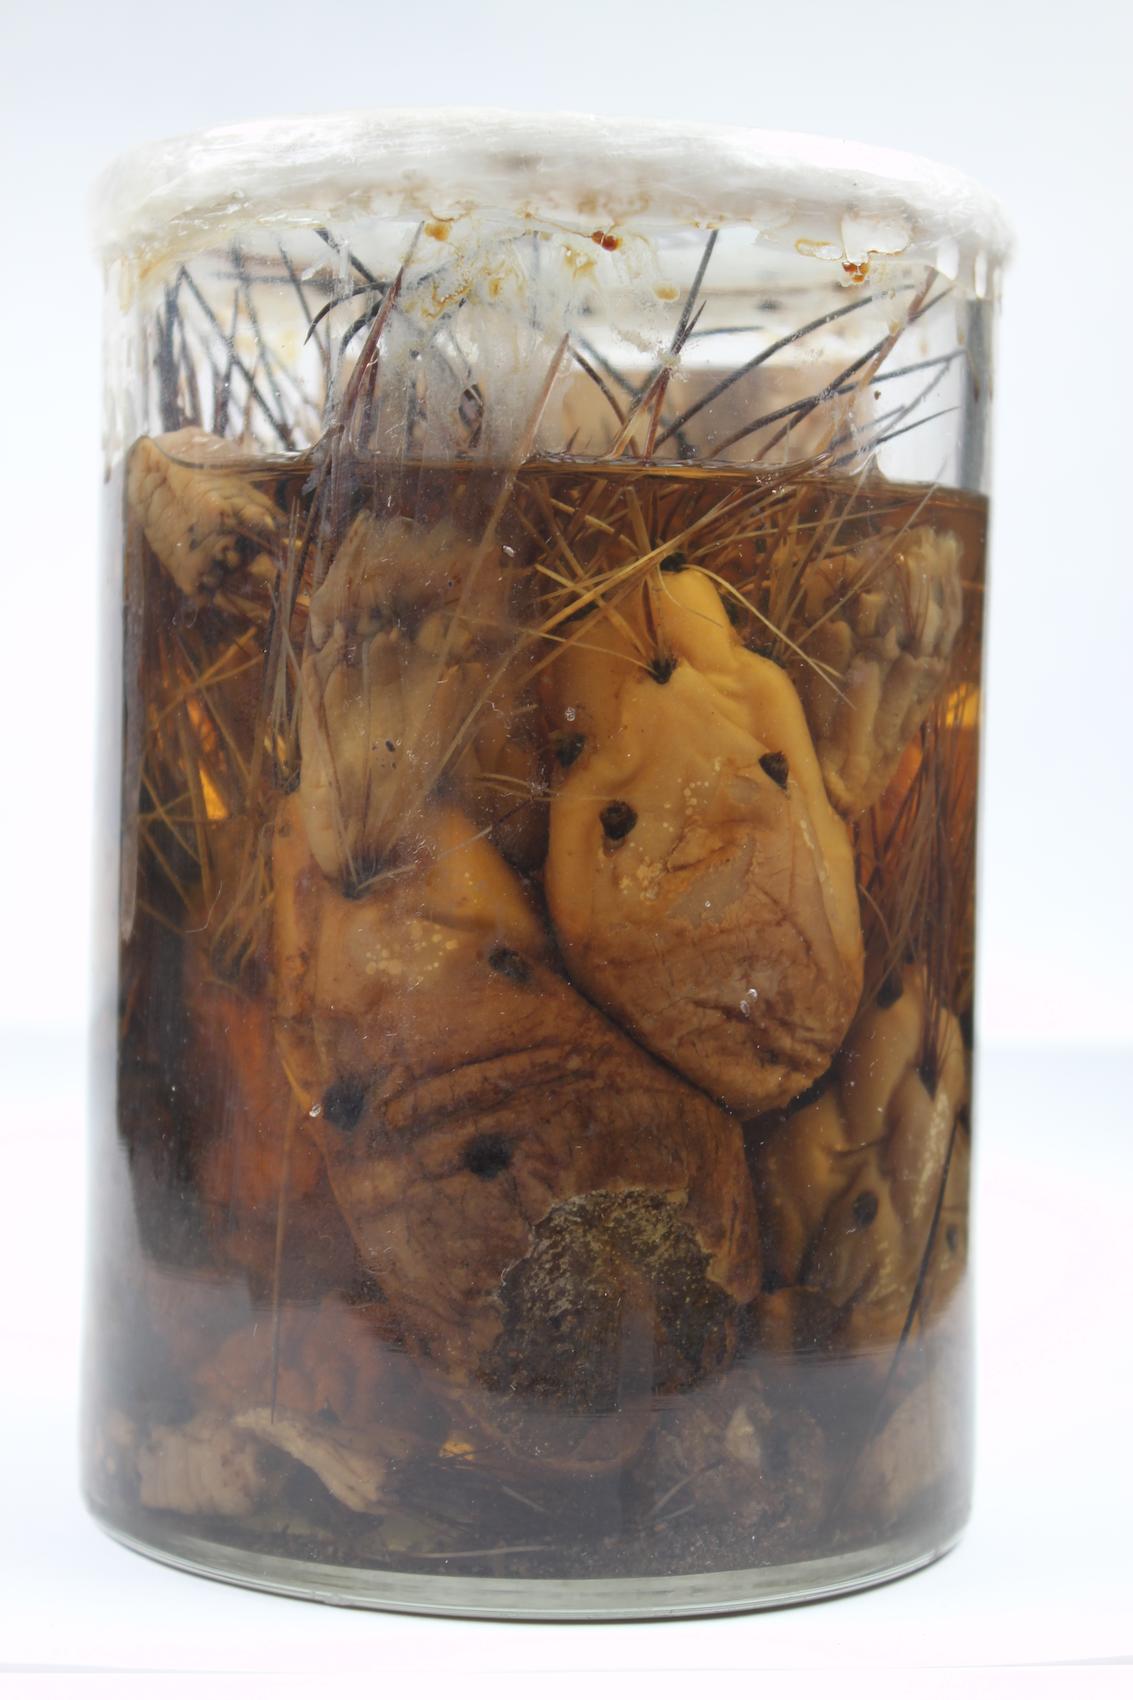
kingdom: Plantae
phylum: Tracheophyta
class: Magnoliopsida
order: Caryophyllales
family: Cactaceae
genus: Cumulopuntia
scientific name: Cumulopuntia glomerata
